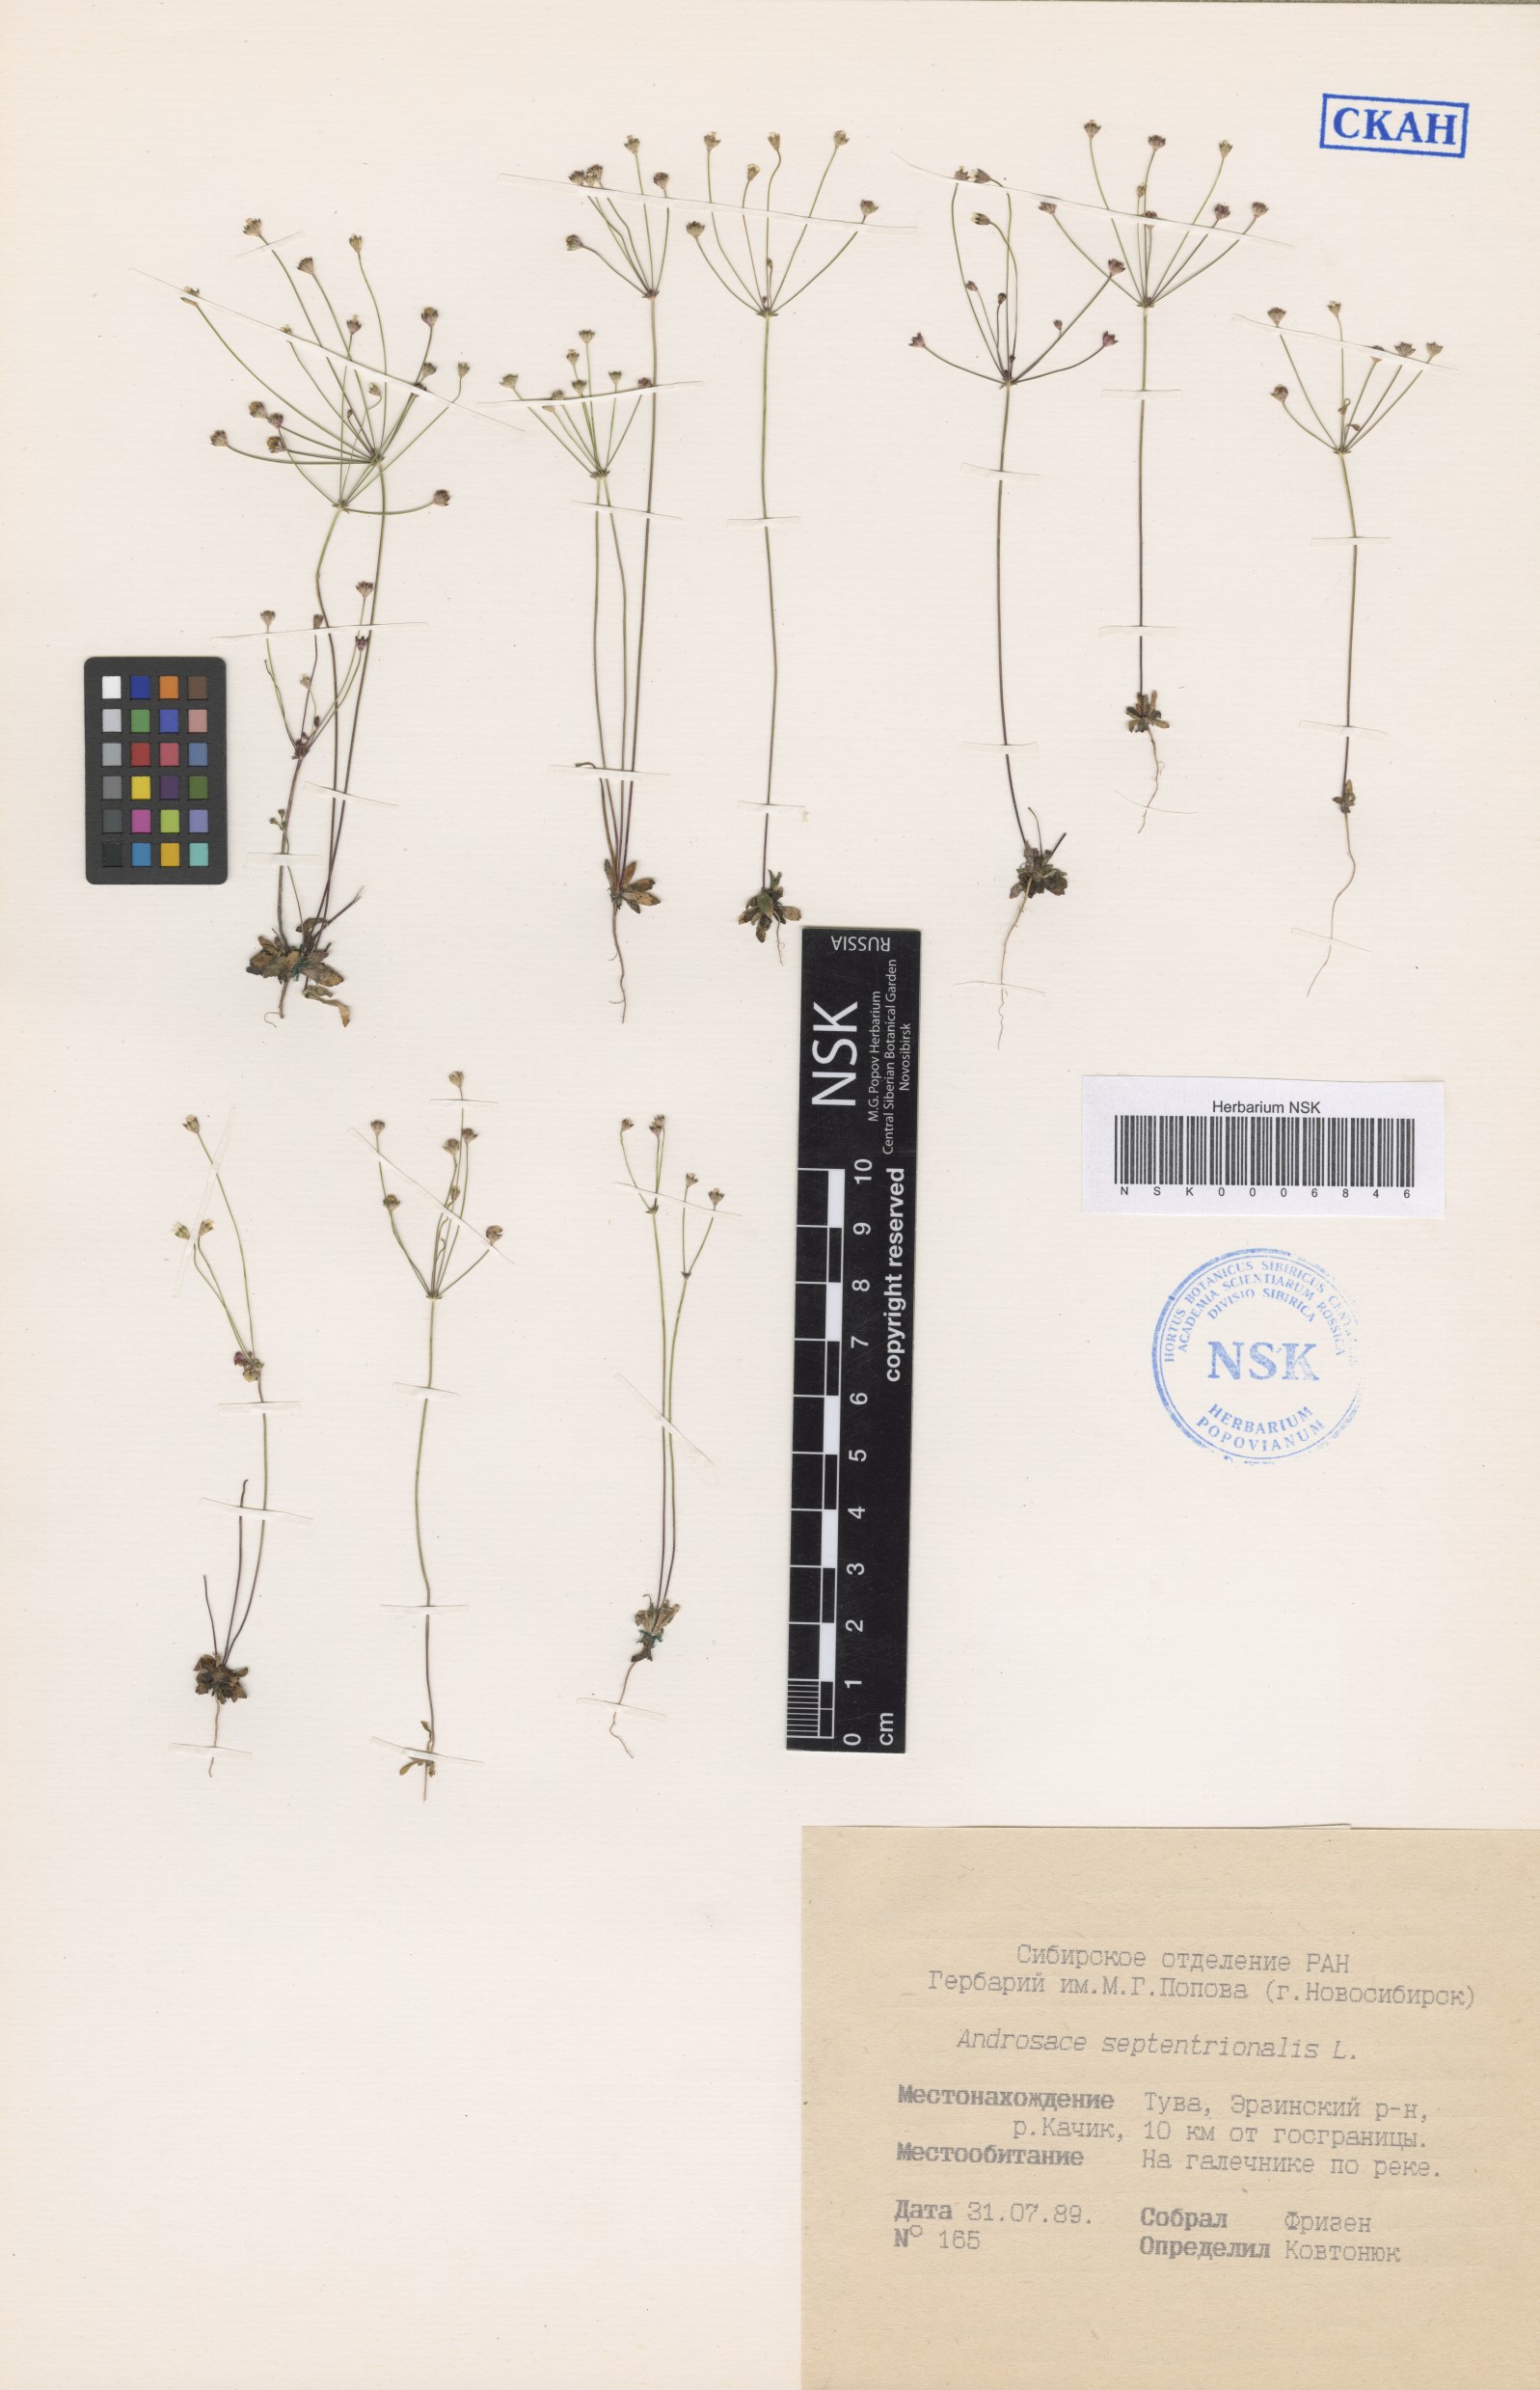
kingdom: Plantae
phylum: Tracheophyta
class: Magnoliopsida
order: Ericales
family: Primulaceae
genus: Androsace
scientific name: Androsace septentrionalis
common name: Hairy northern fairy-candelabra
